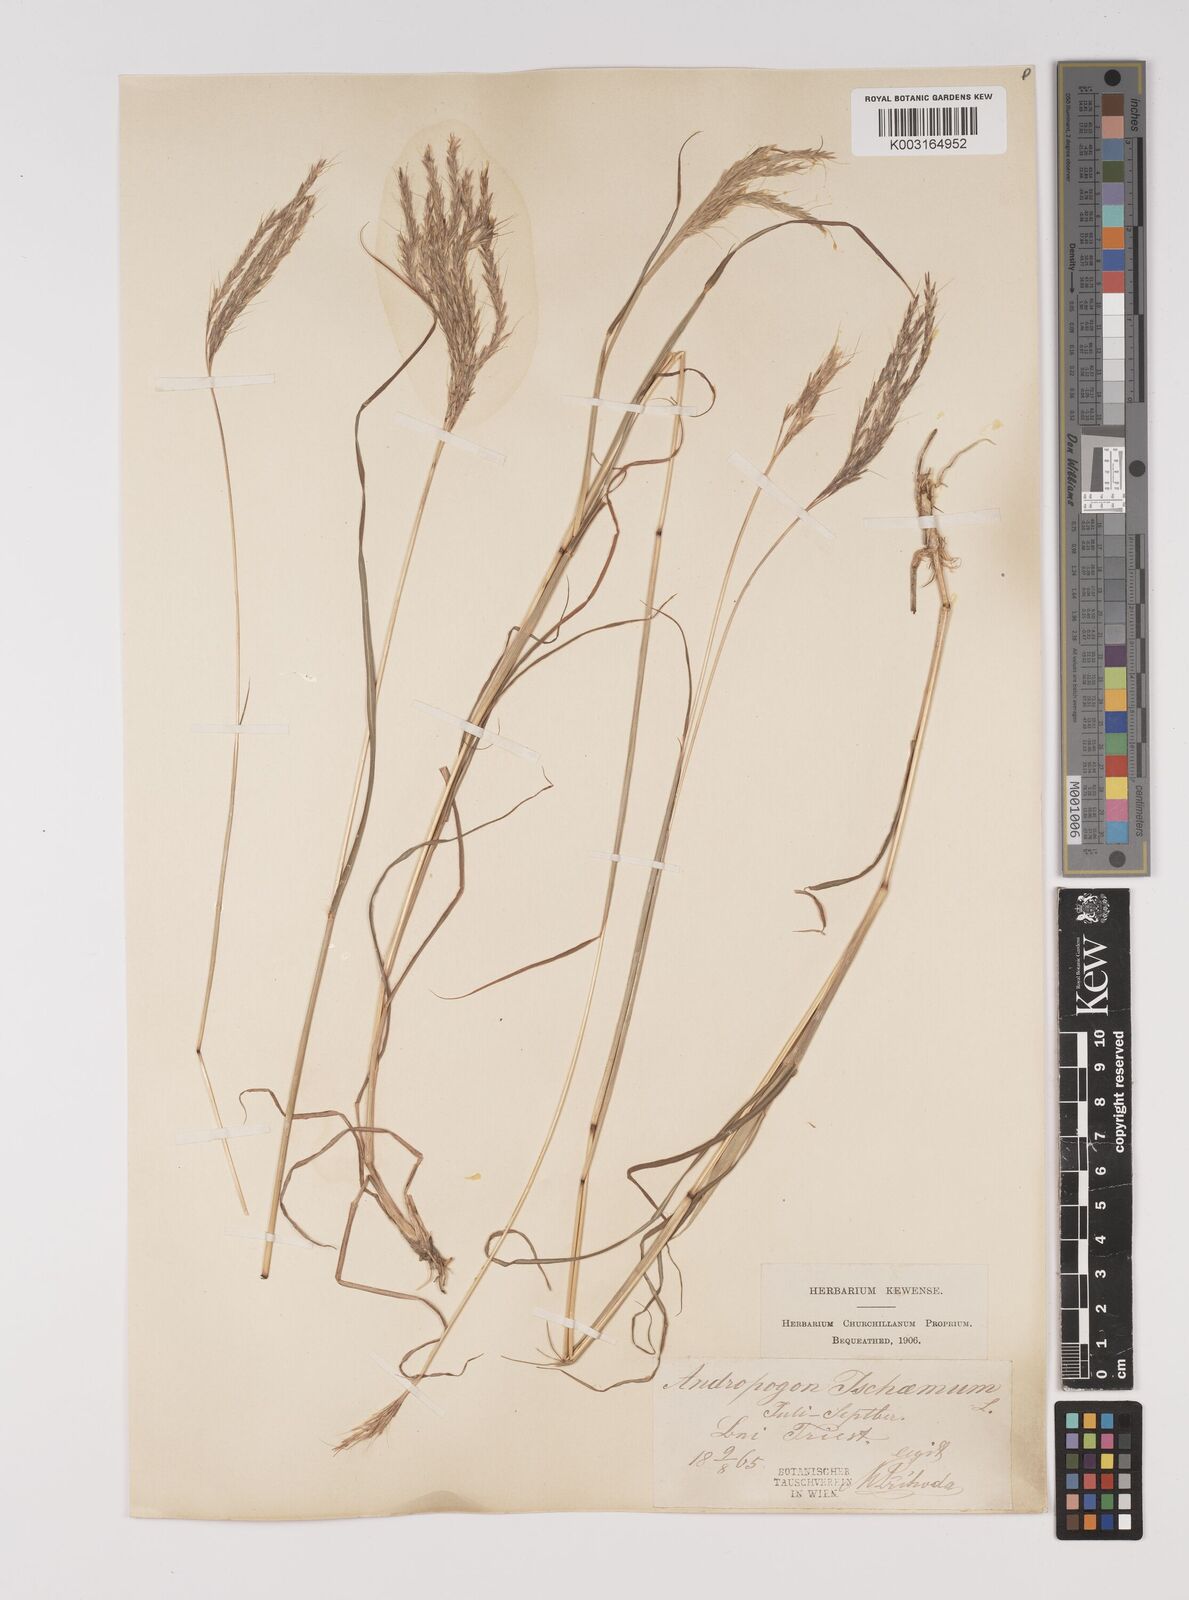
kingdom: Plantae
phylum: Tracheophyta
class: Liliopsida
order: Poales
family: Poaceae
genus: Bothriochloa
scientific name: Bothriochloa ischaemum
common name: Yellow bluestem
